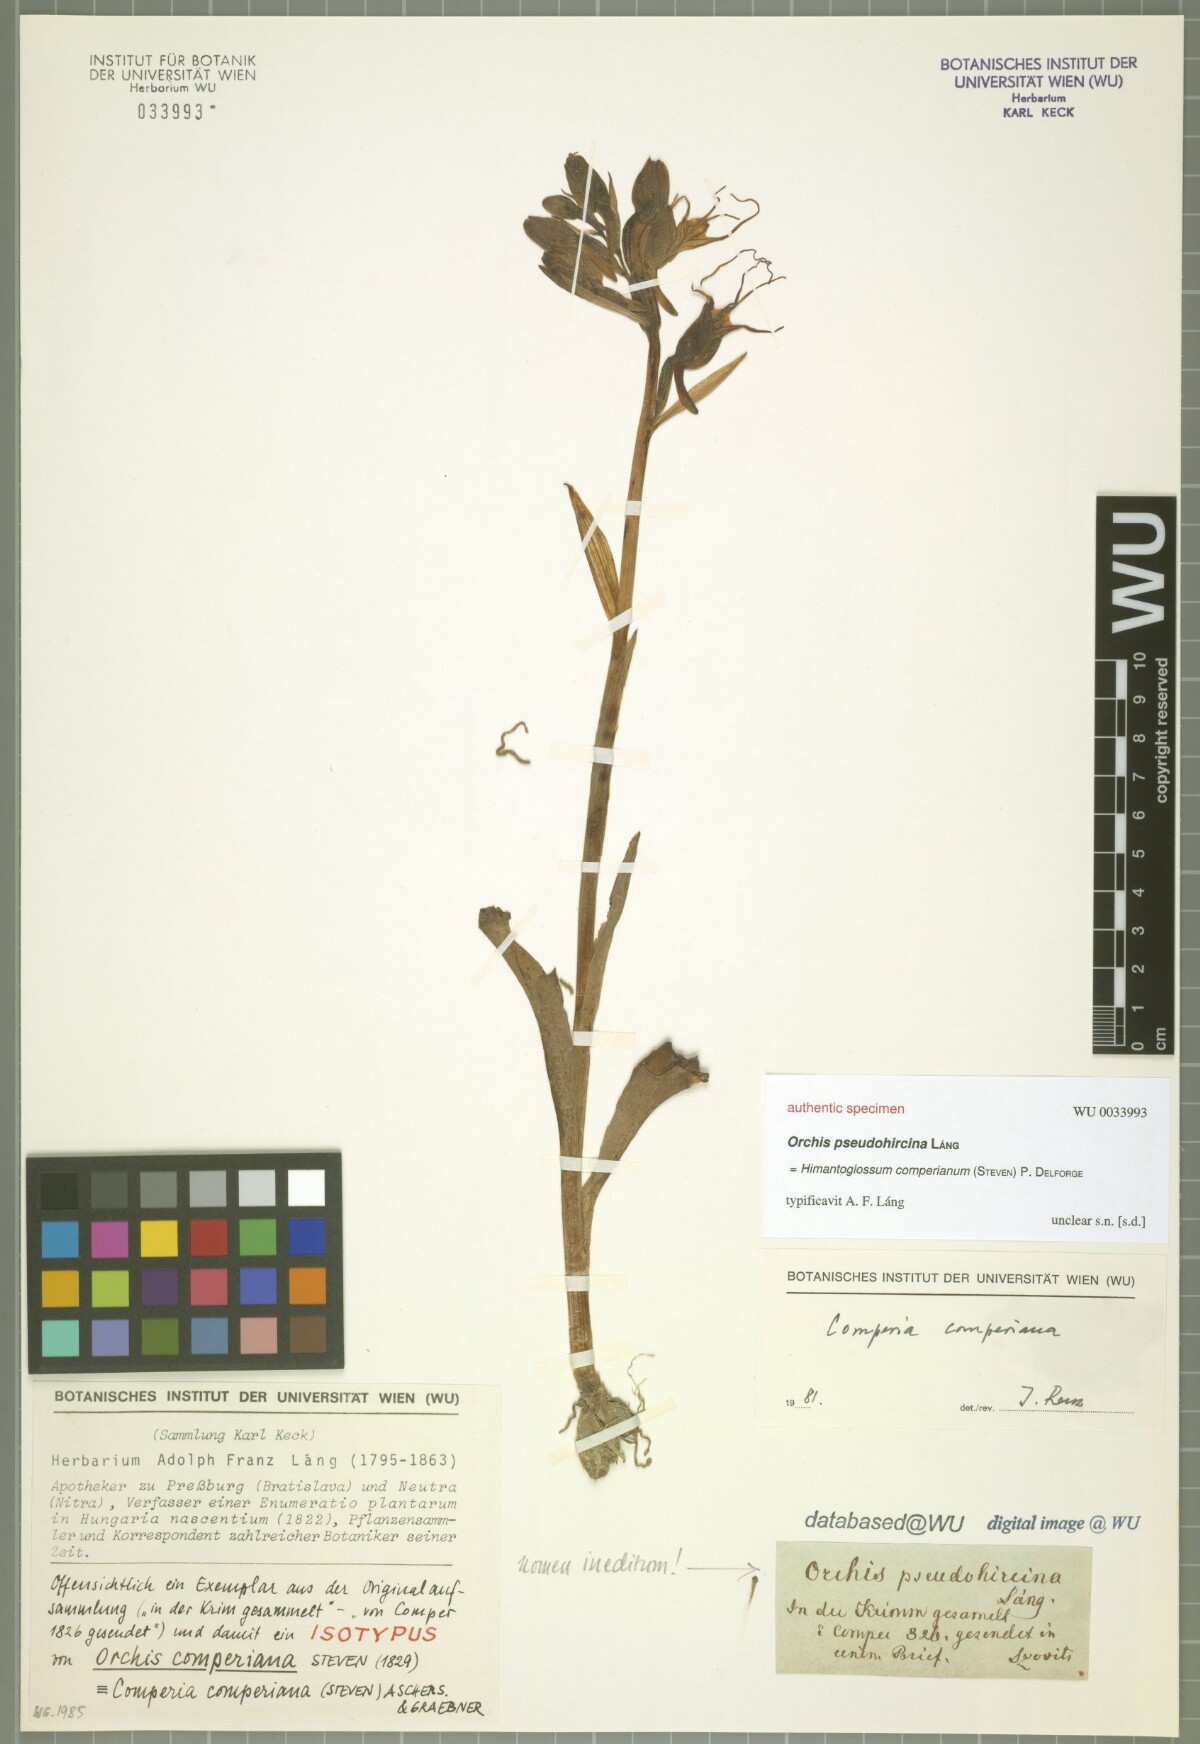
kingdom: Plantae
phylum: Tracheophyta
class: Liliopsida
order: Asparagales
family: Orchidaceae
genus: Himantoglossum
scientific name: Himantoglossum comperianum
